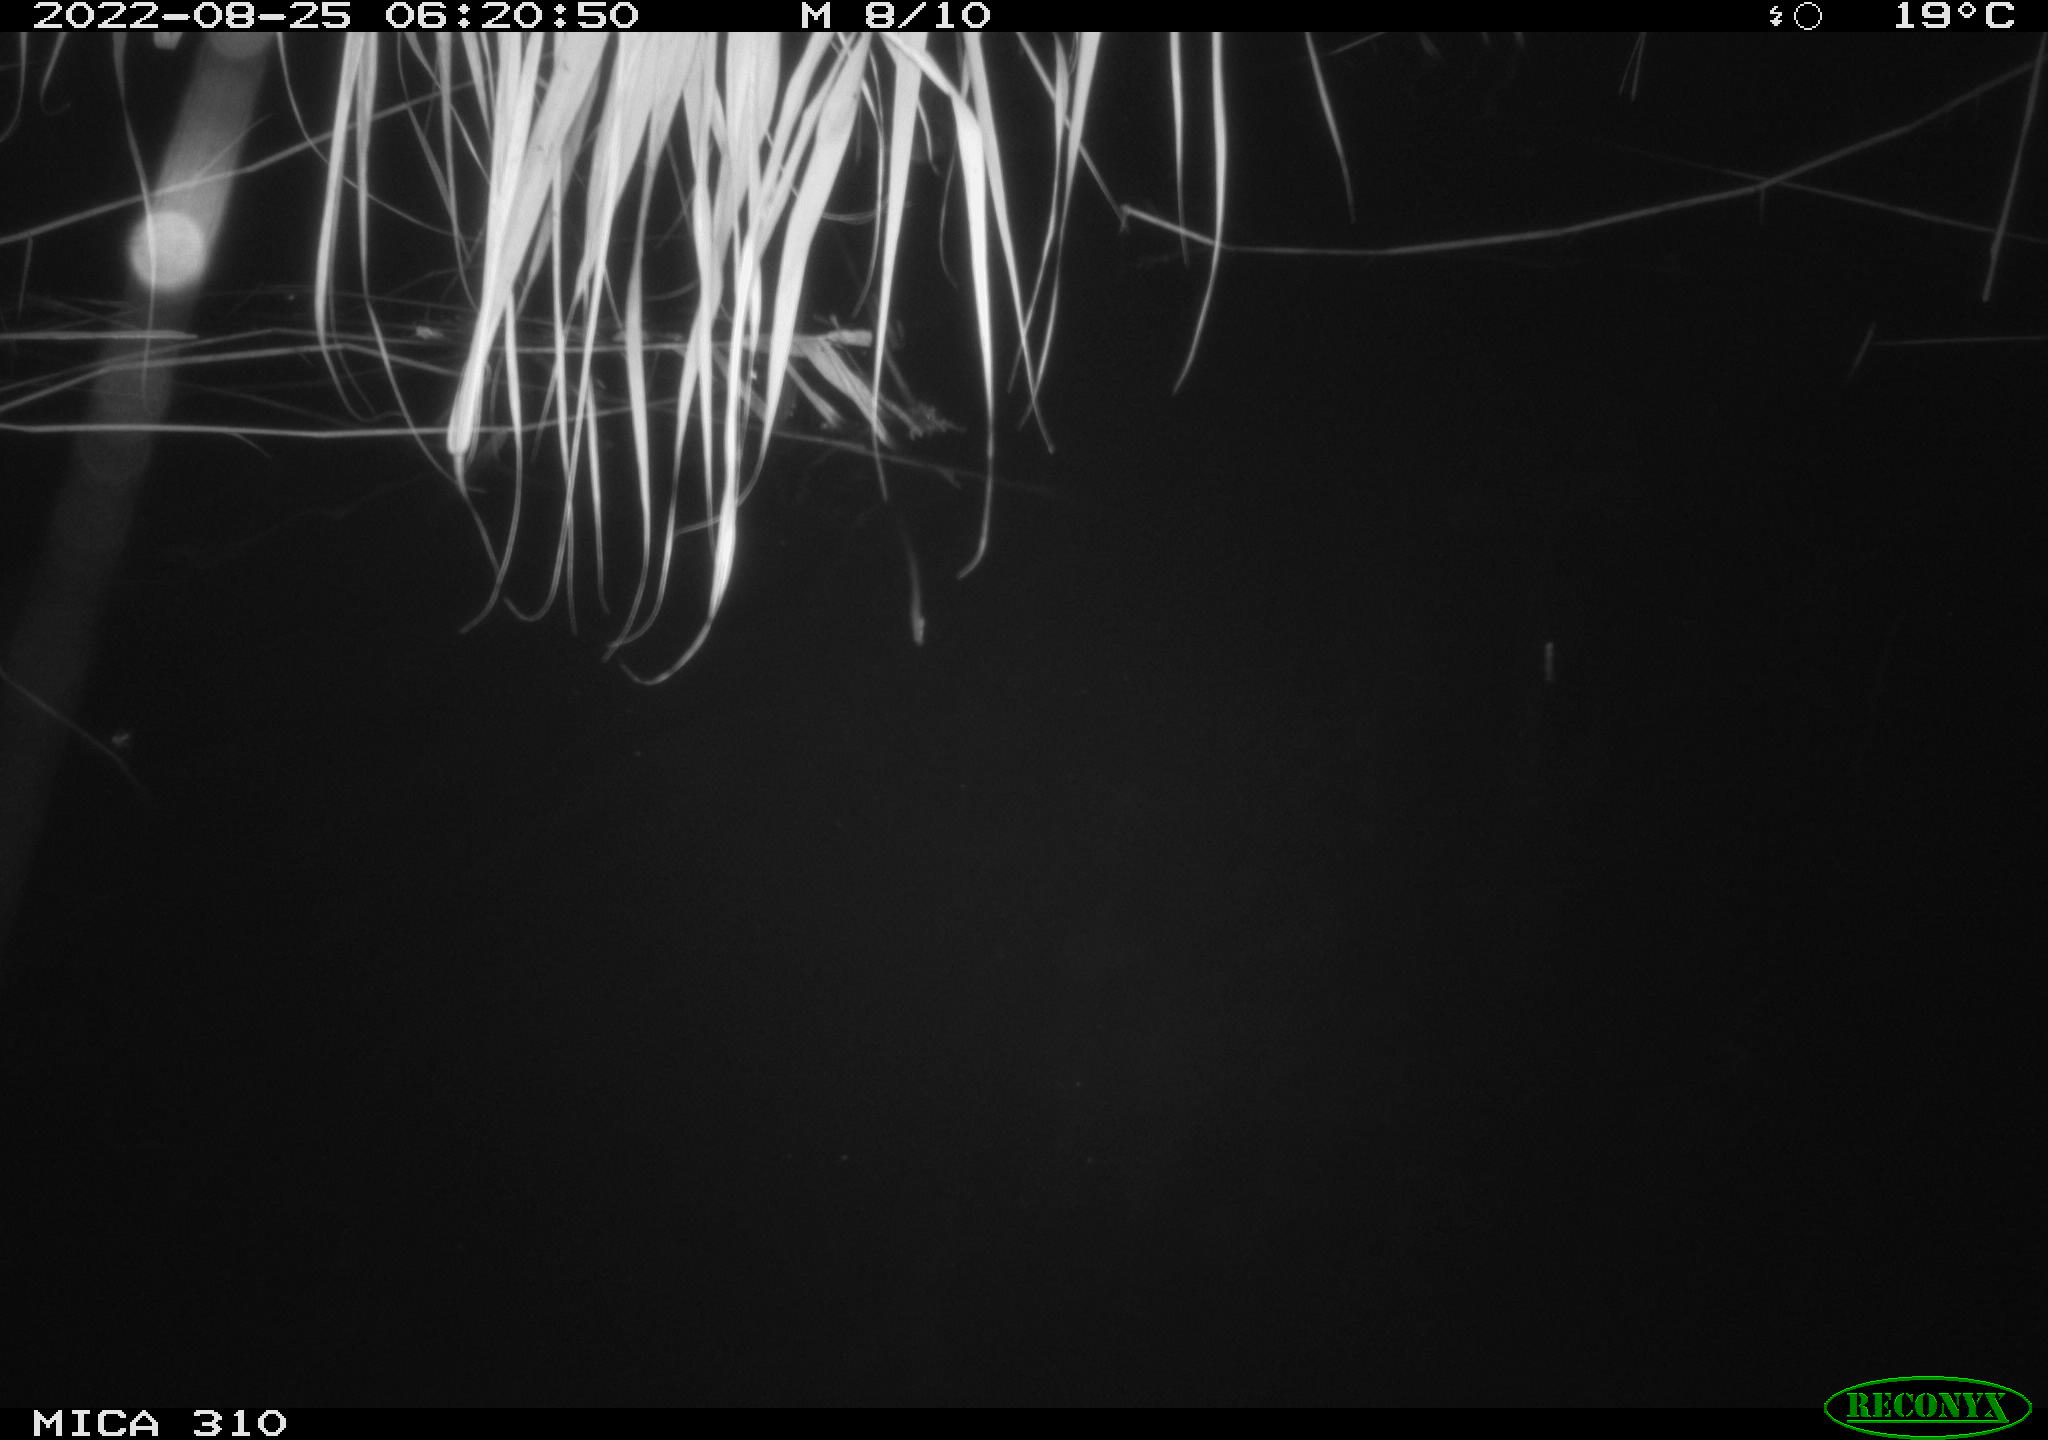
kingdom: Animalia
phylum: Chordata
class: Aves
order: Anseriformes
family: Anatidae
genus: Anas
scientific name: Anas platyrhynchos
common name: Mallard
